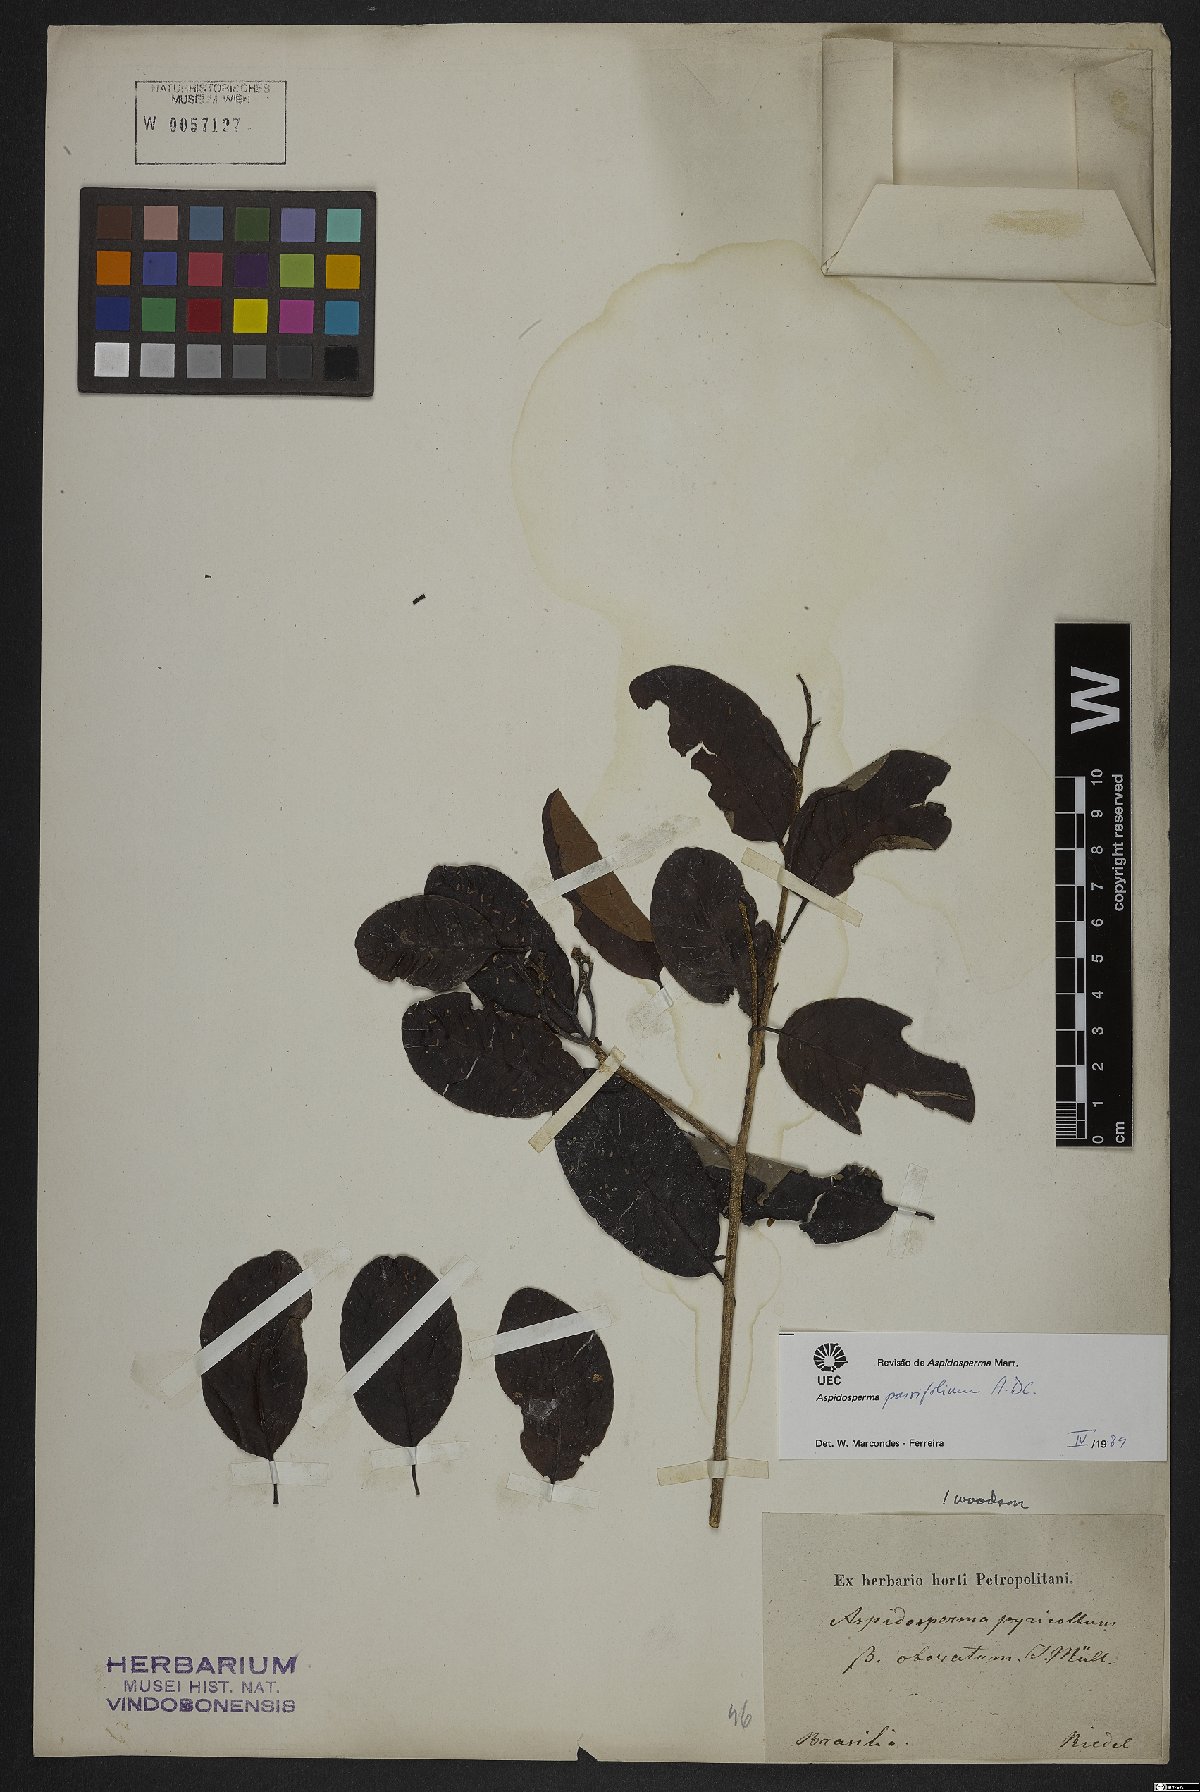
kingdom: Plantae
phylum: Tracheophyta
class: Magnoliopsida
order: Gentianales
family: Apocynaceae
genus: Aspidosperma
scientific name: Aspidosperma parvifolium
